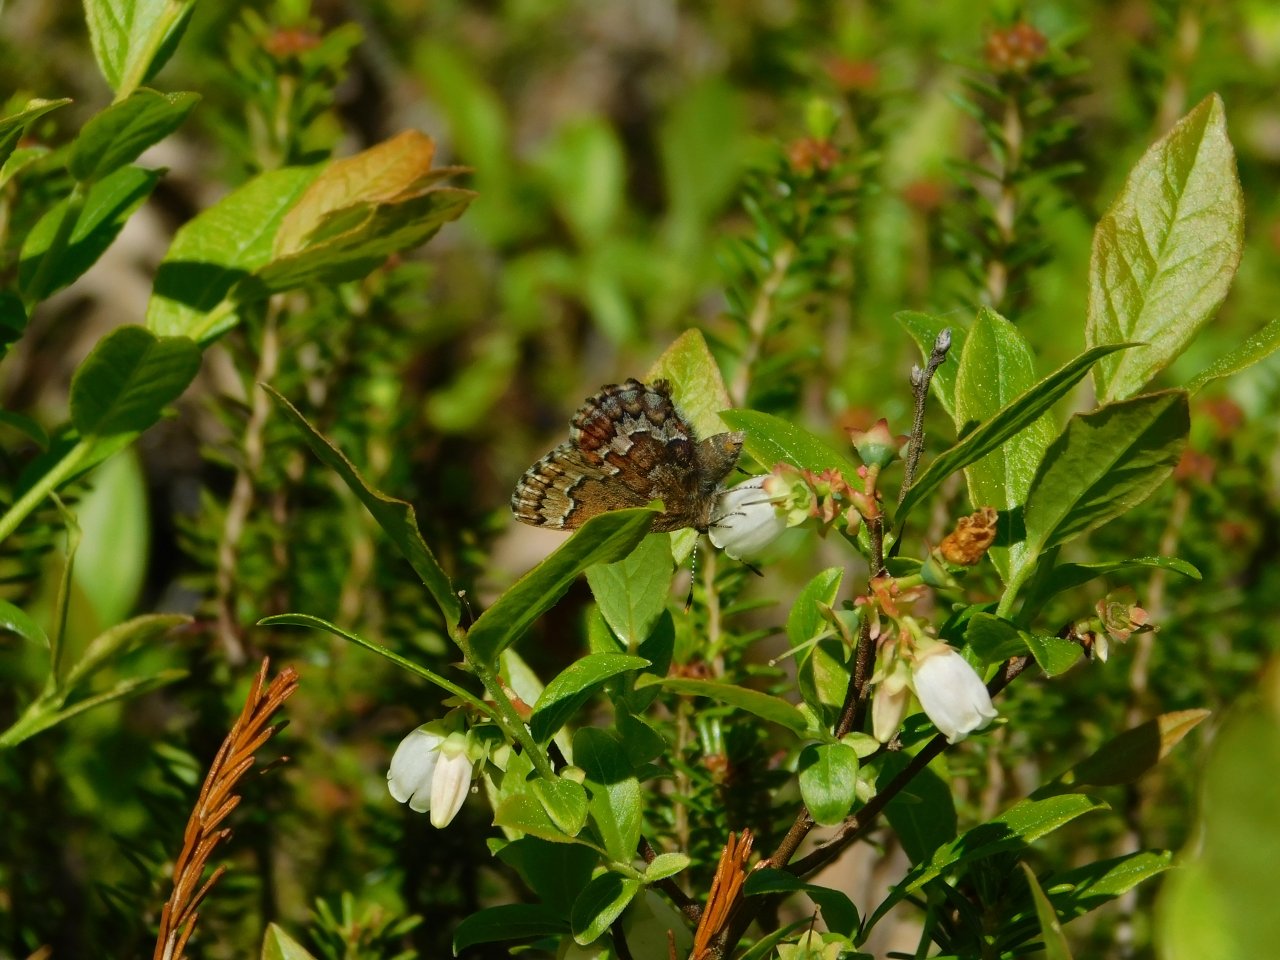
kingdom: Animalia
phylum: Arthropoda
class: Insecta
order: Lepidoptera
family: Lycaenidae
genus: Incisalia
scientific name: Incisalia niphon
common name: Eastern Pine Elfin
